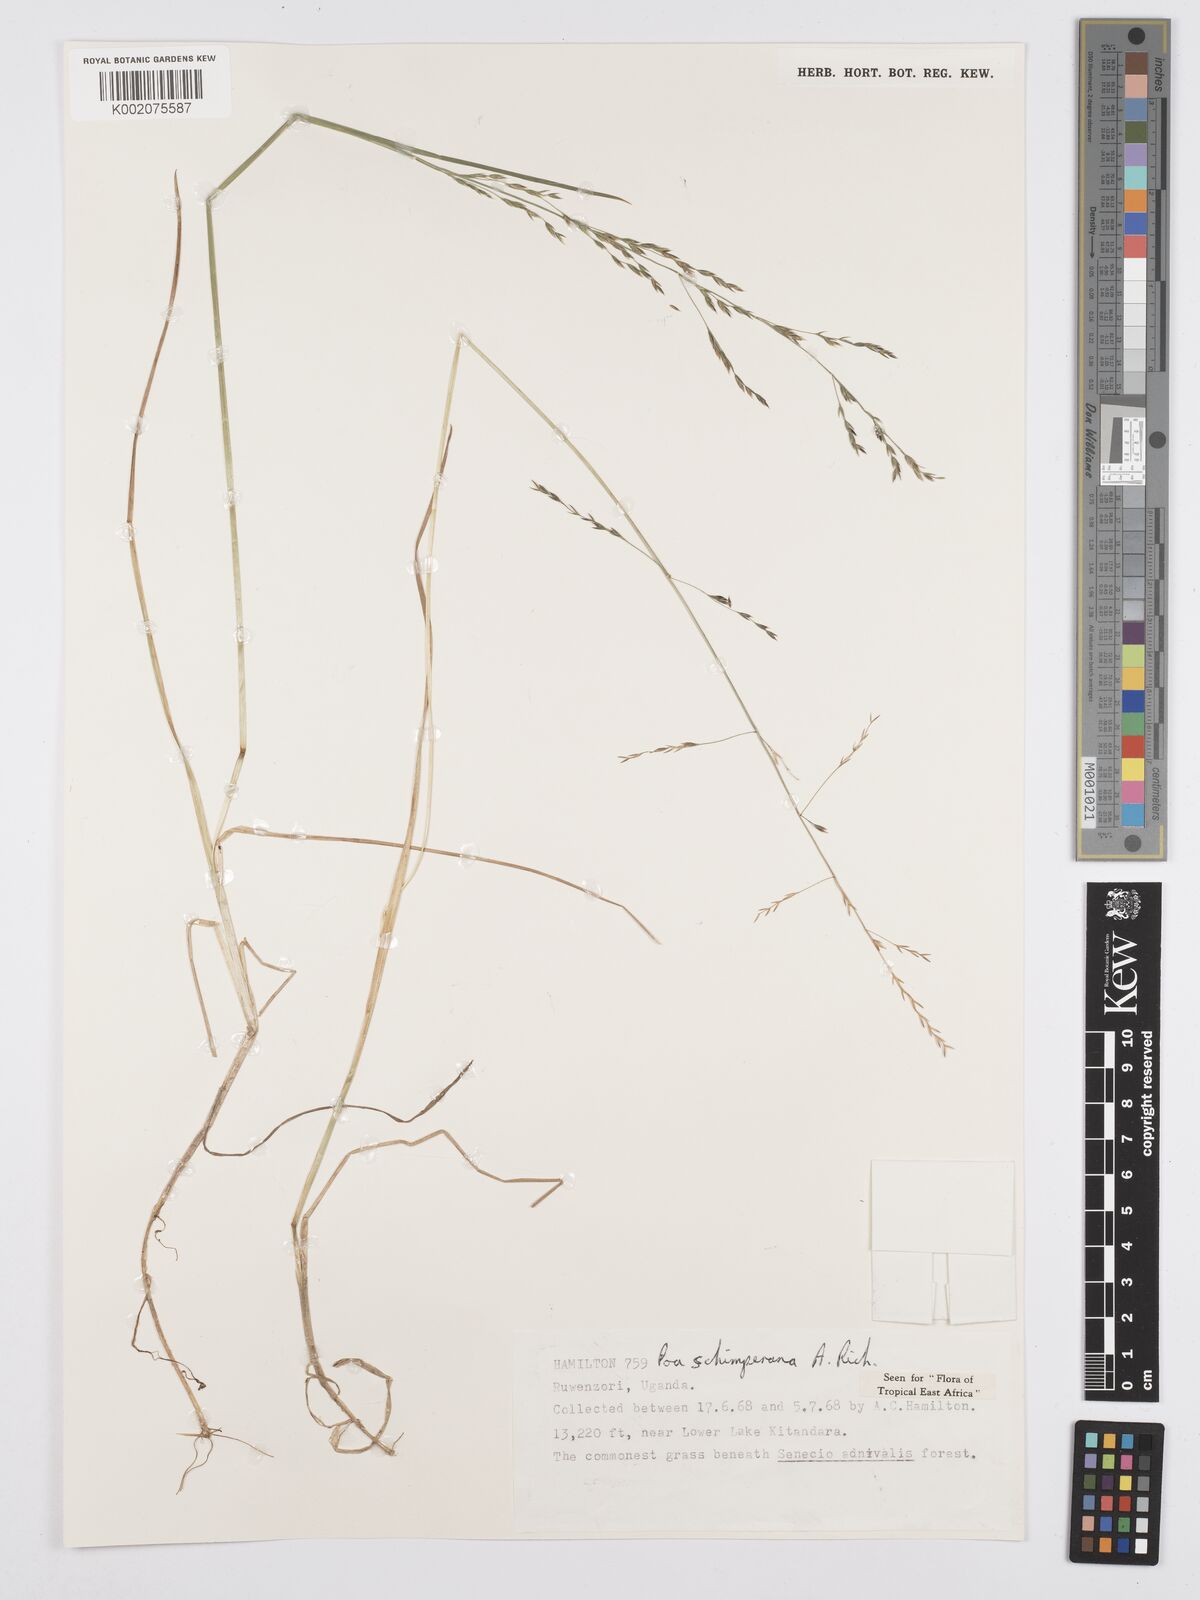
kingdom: Plantae
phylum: Tracheophyta
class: Liliopsida
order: Poales
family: Poaceae
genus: Poa
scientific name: Poa schimperiana
